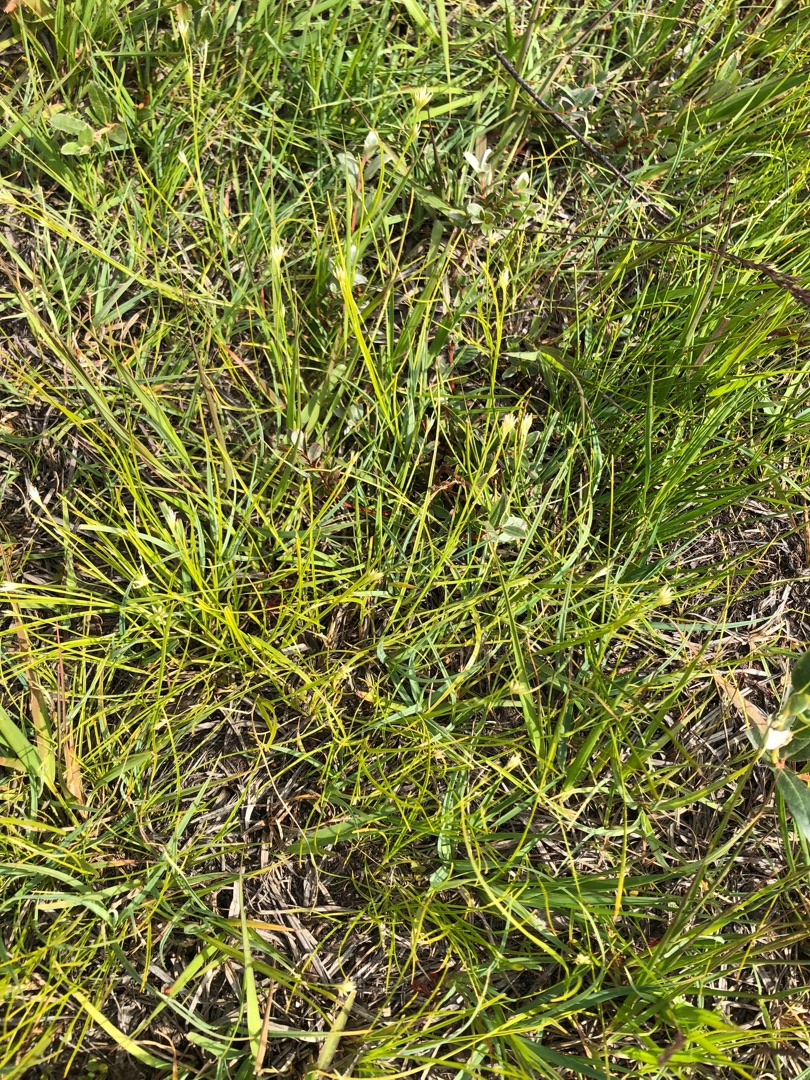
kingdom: Plantae
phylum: Tracheophyta
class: Liliopsida
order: Poales
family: Cyperaceae
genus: Rhynchospora
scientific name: Rhynchospora alba
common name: Hvid næbfrø
